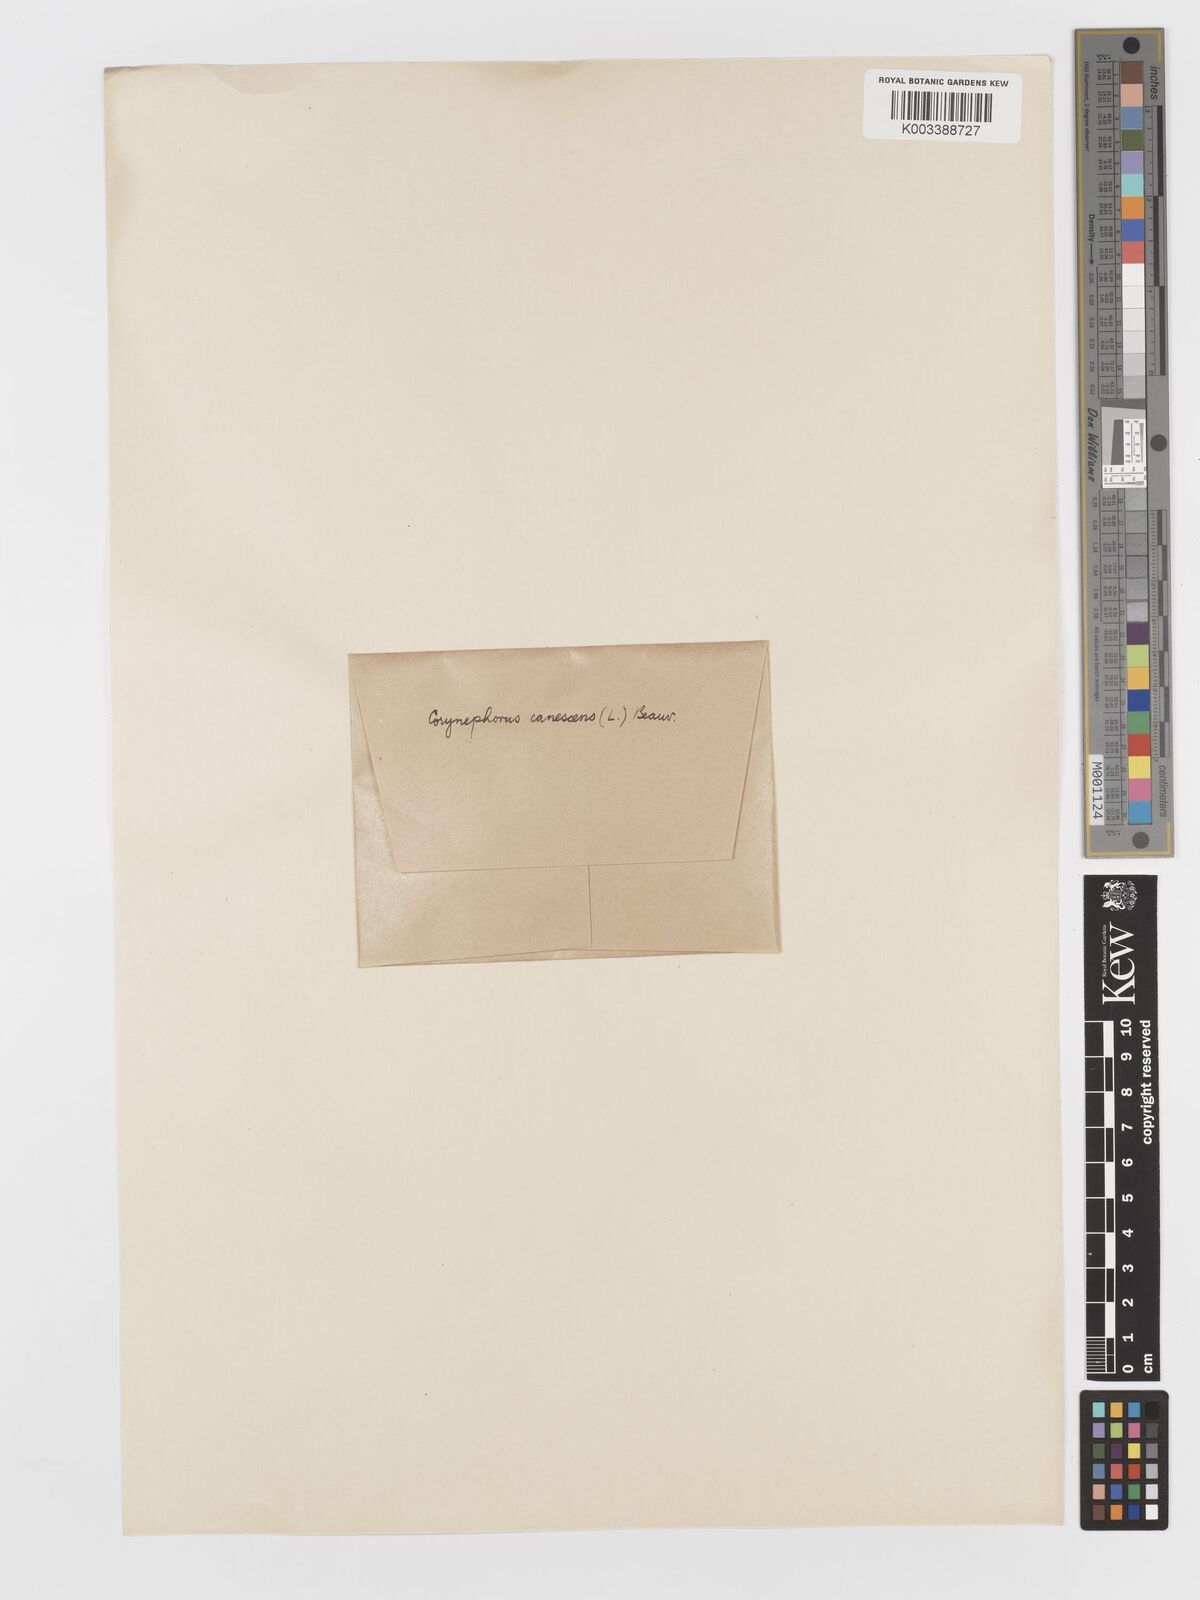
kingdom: Plantae
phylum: Tracheophyta
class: Liliopsida
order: Poales
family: Poaceae
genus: Corynephorus
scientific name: Corynephorus canescens
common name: Grey hair-grass
